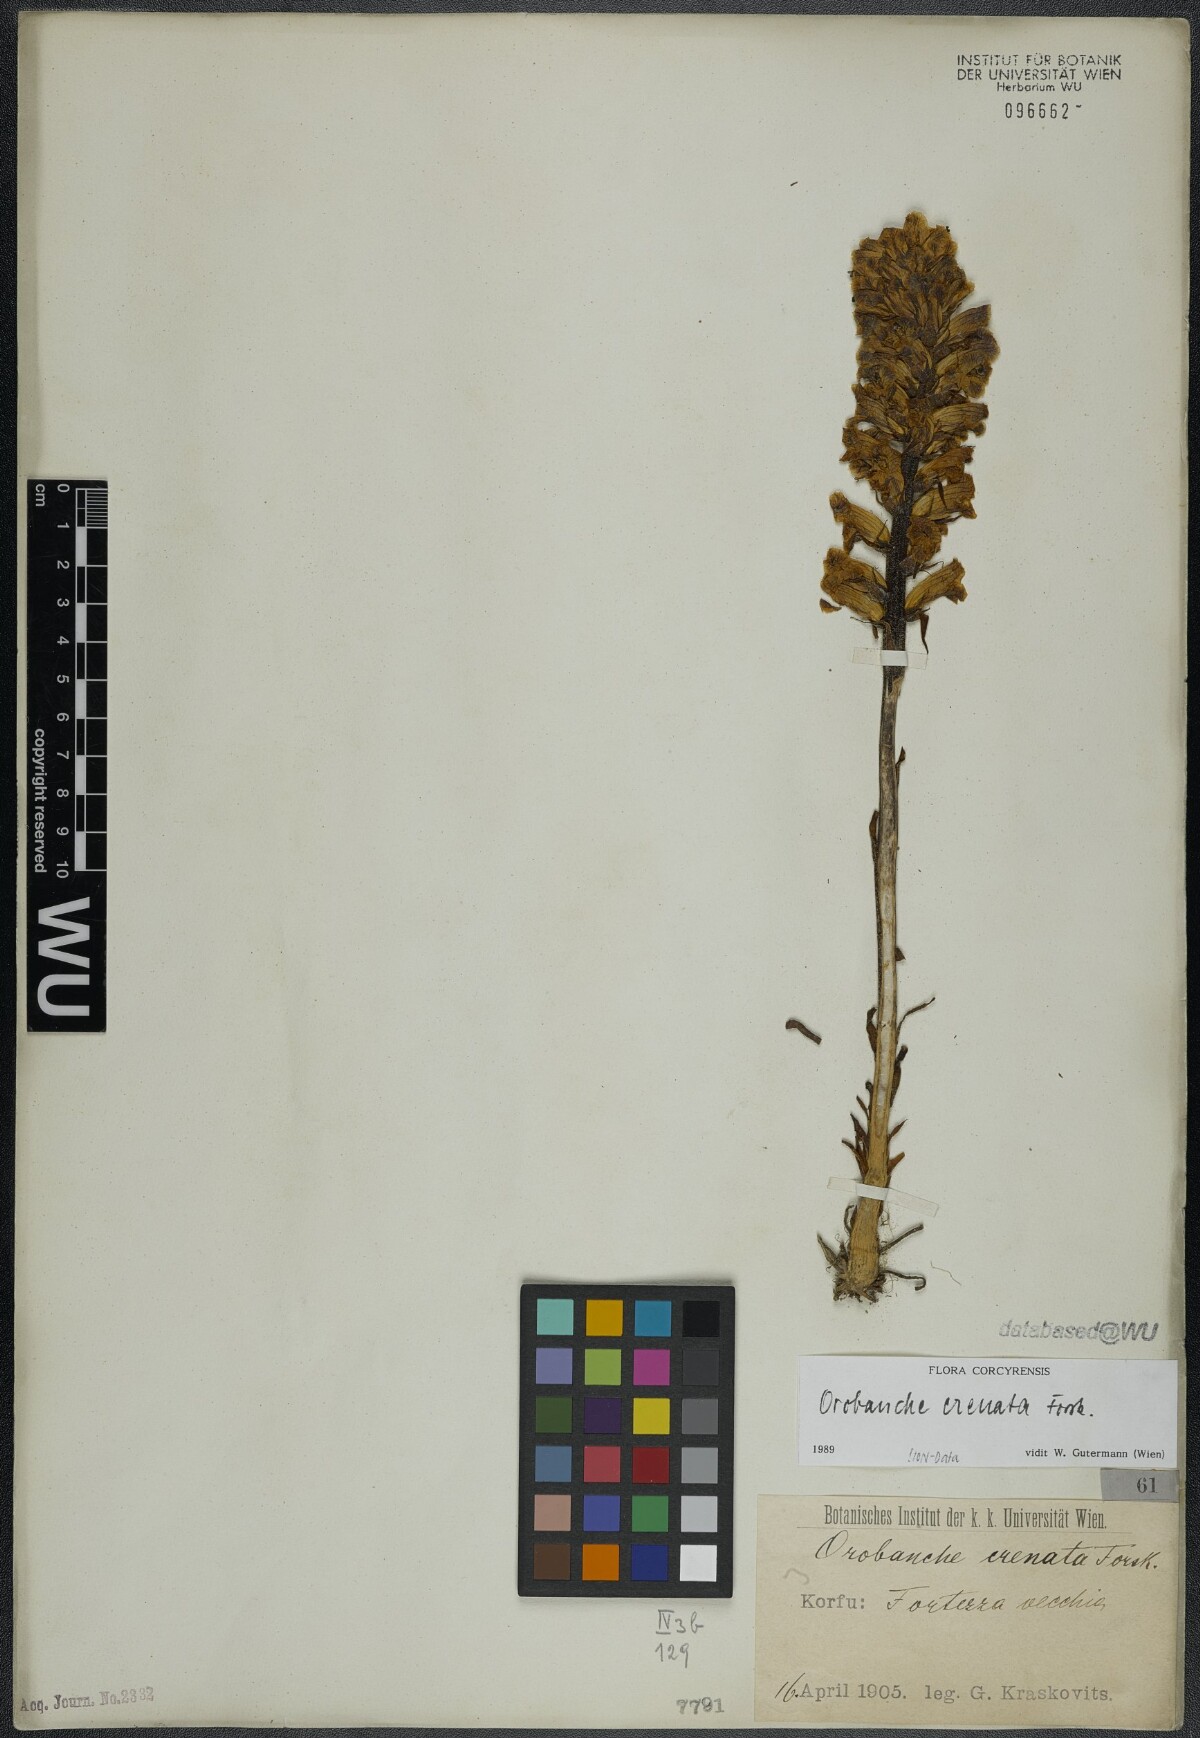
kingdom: Plantae
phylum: Tracheophyta
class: Magnoliopsida
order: Lamiales
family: Orobanchaceae
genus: Orobanche
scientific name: Orobanche crenata
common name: Bean broomrape
